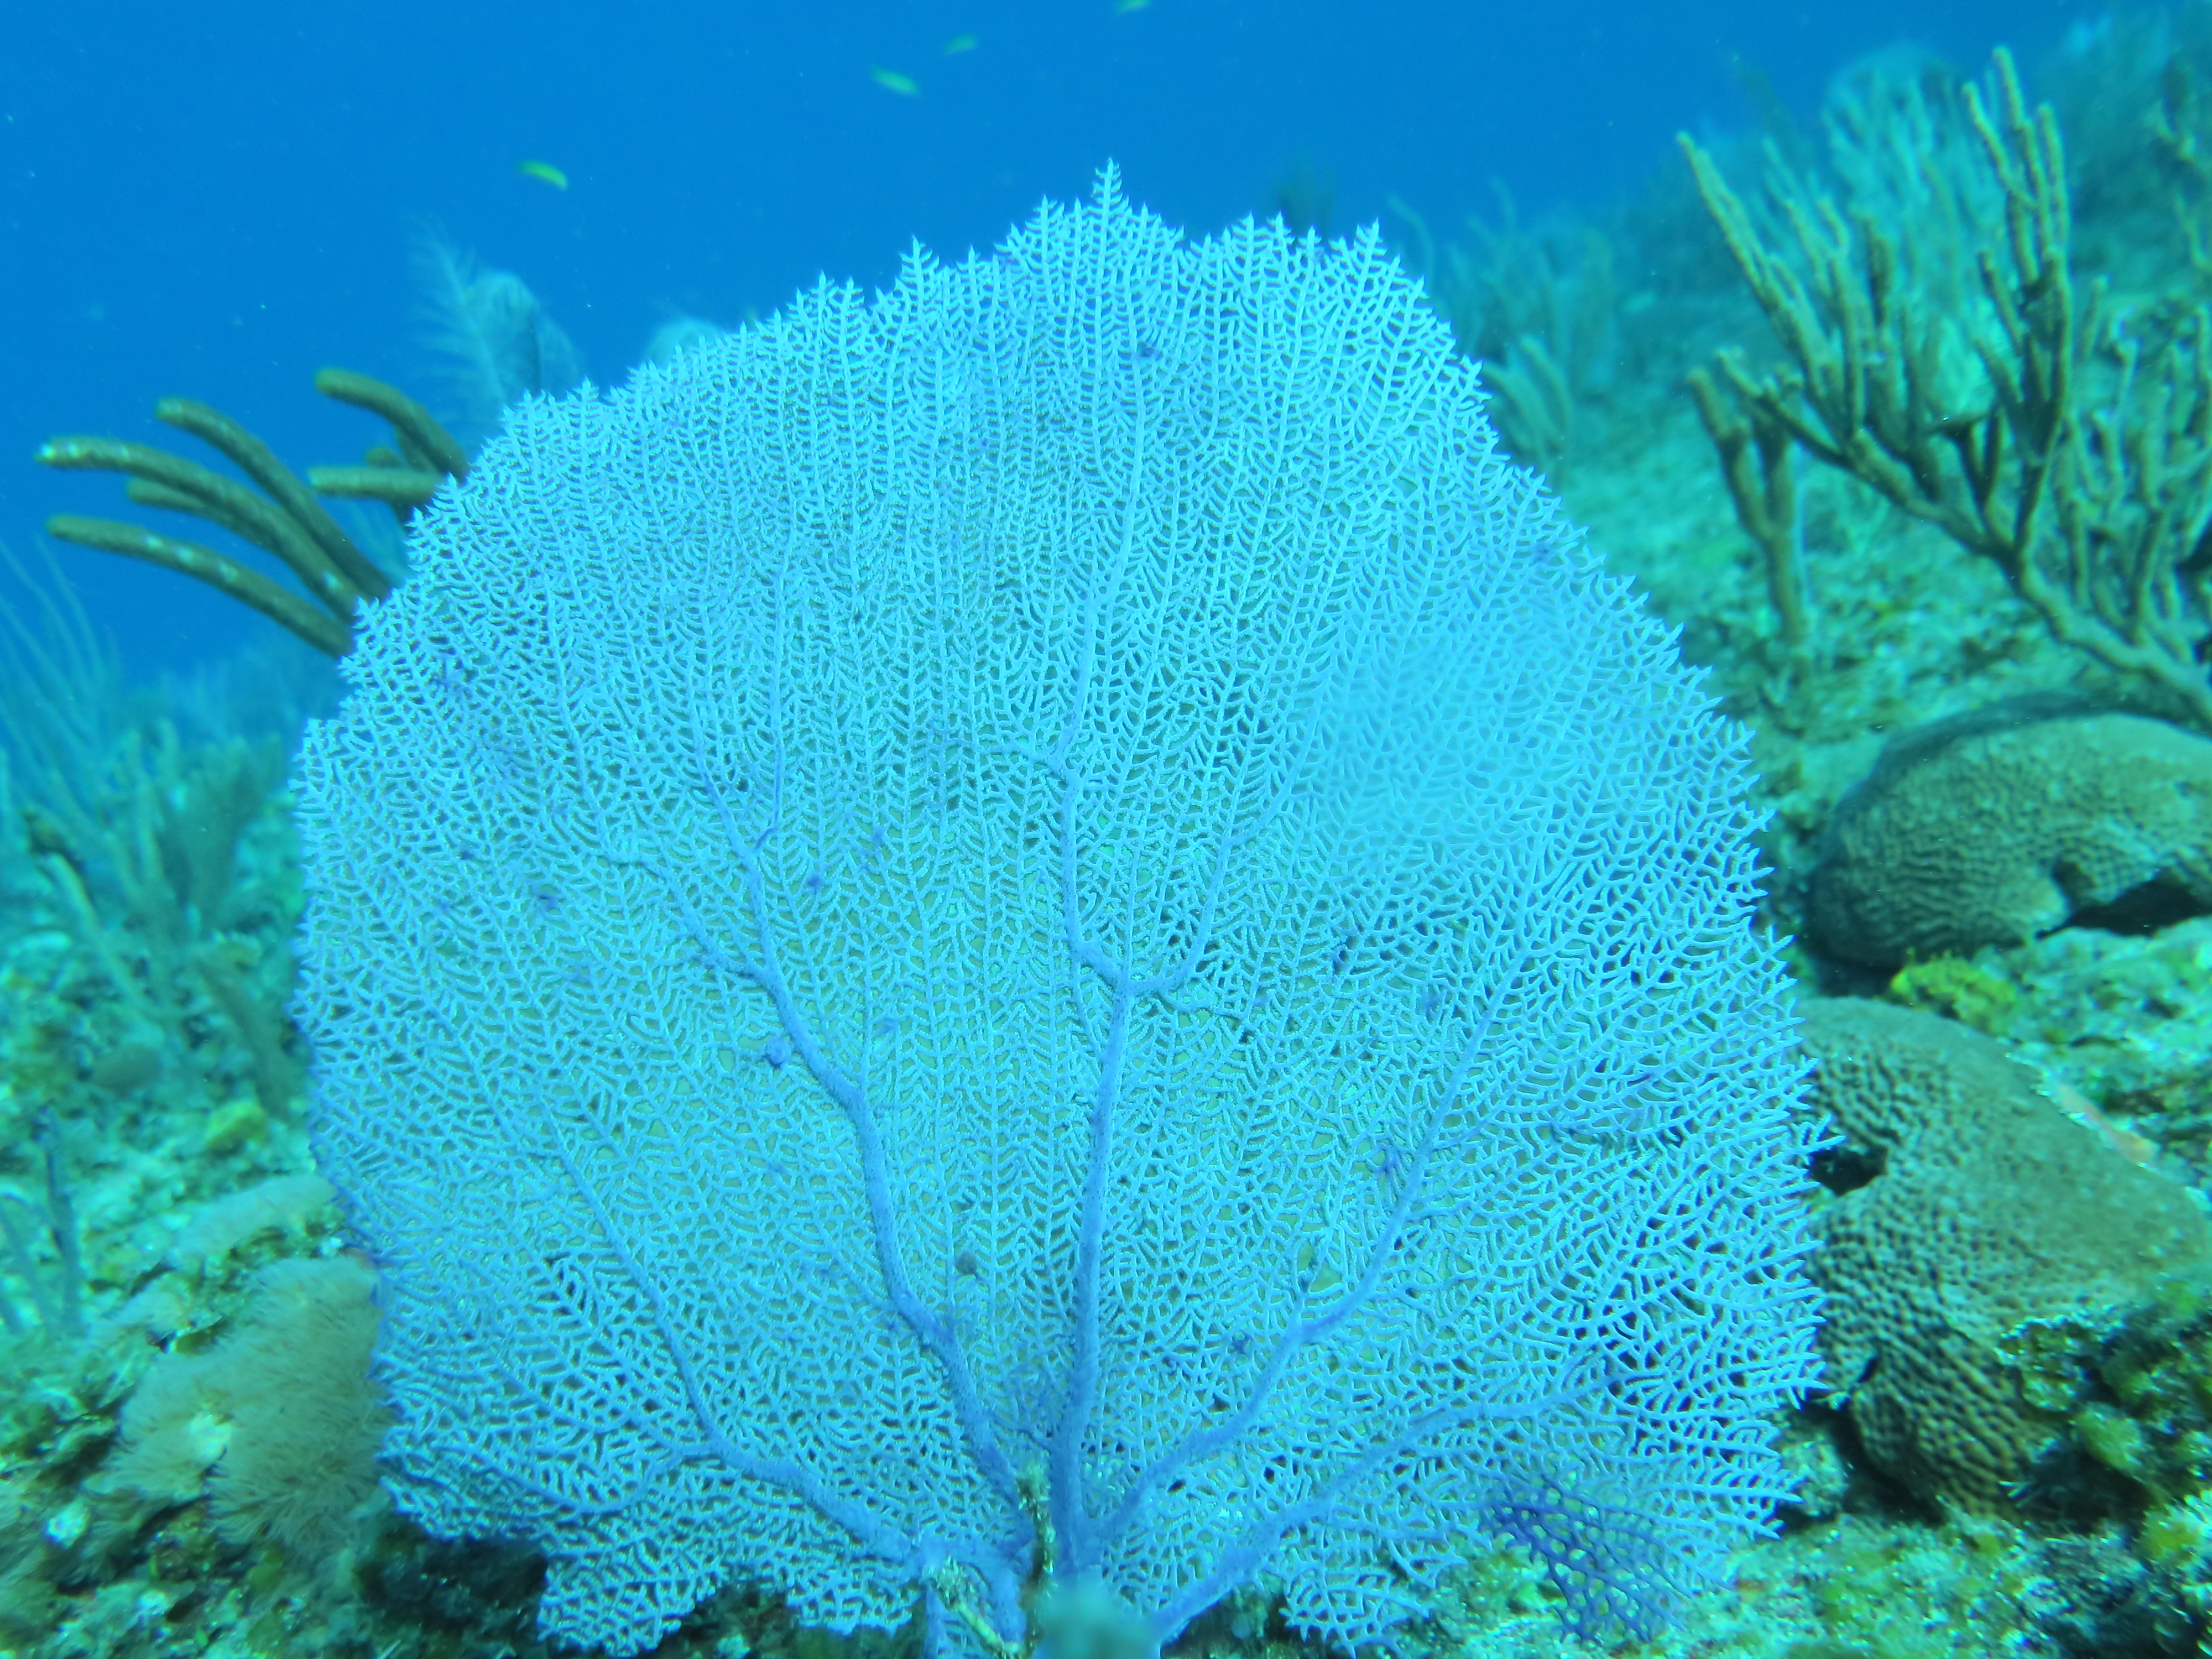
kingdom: Animalia
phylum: Cnidaria
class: Anthozoa
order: Malacalcyonacea
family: Gorgoniidae
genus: Gorgonia
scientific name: Gorgonia ventalina
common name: Common sea fan
